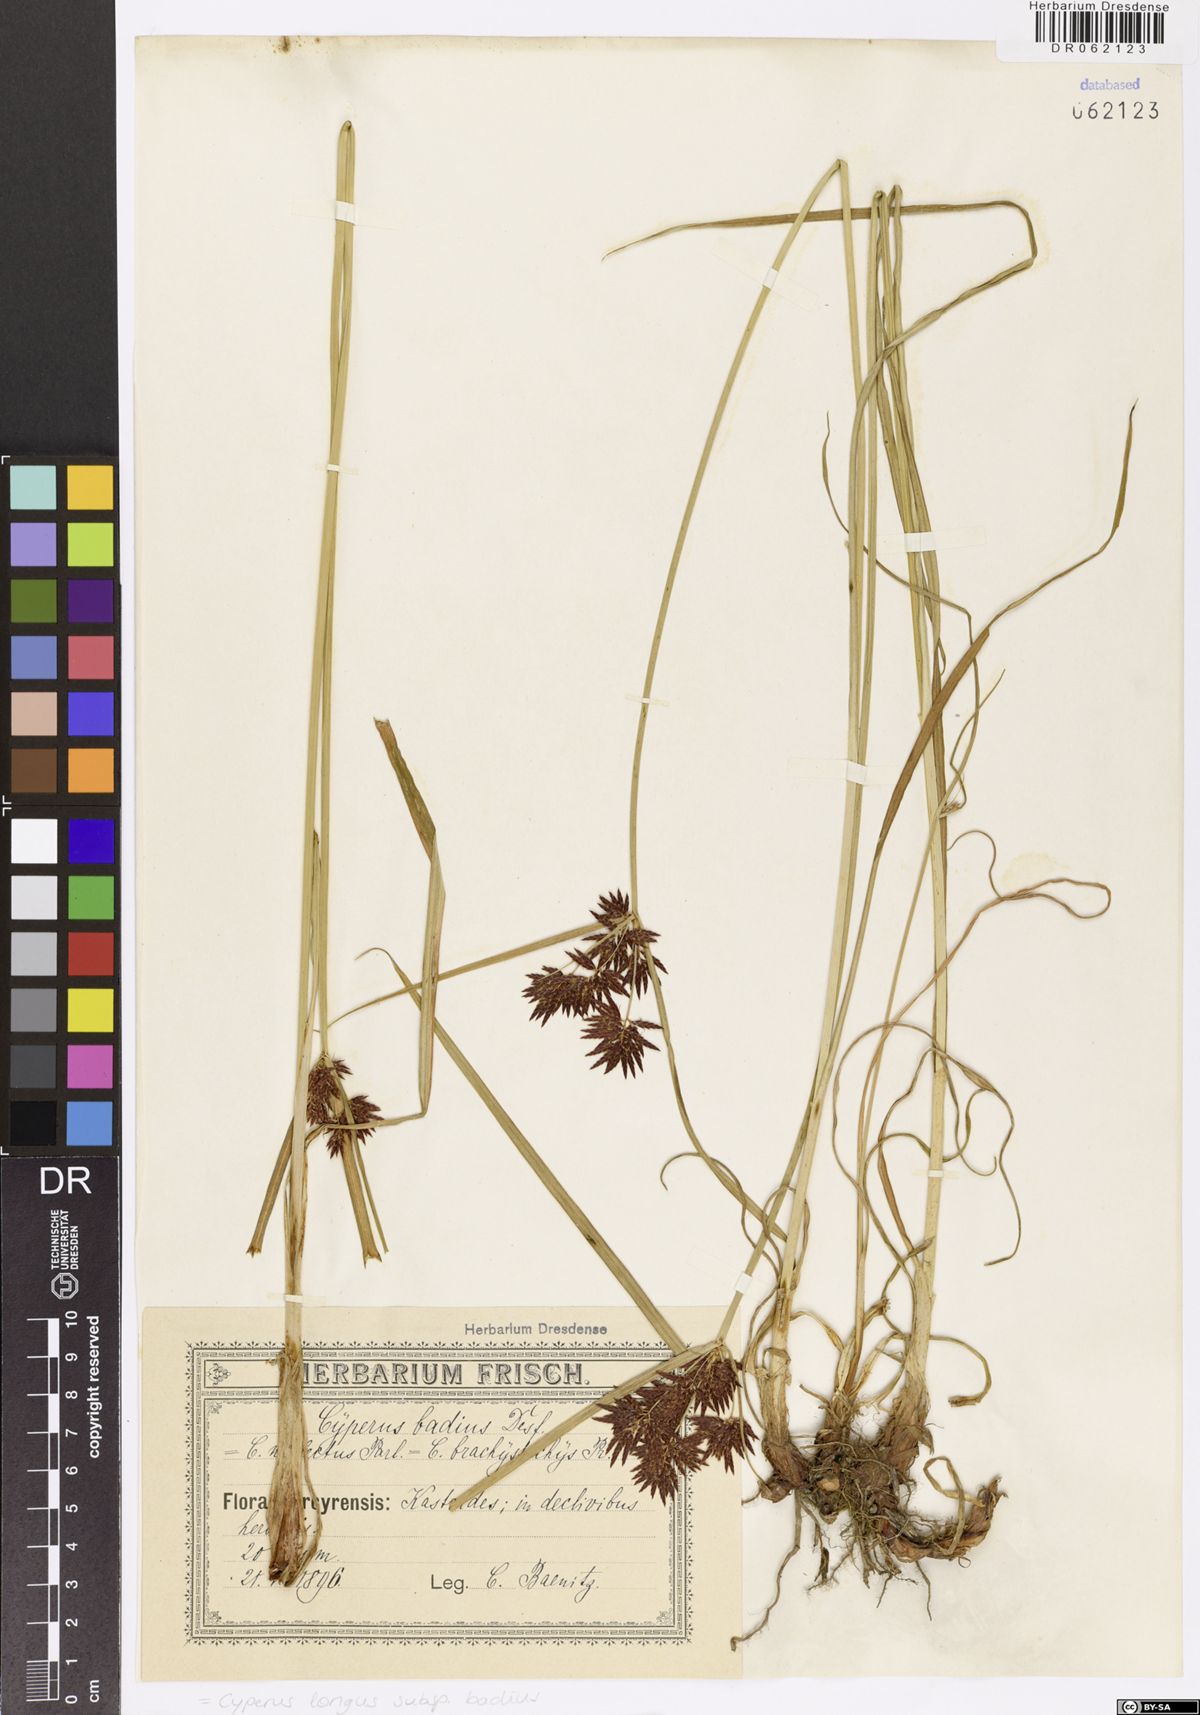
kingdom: Plantae
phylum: Tracheophyta
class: Liliopsida
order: Poales
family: Cyperaceae
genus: Cyperus
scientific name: Cyperus longus
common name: Galingale
